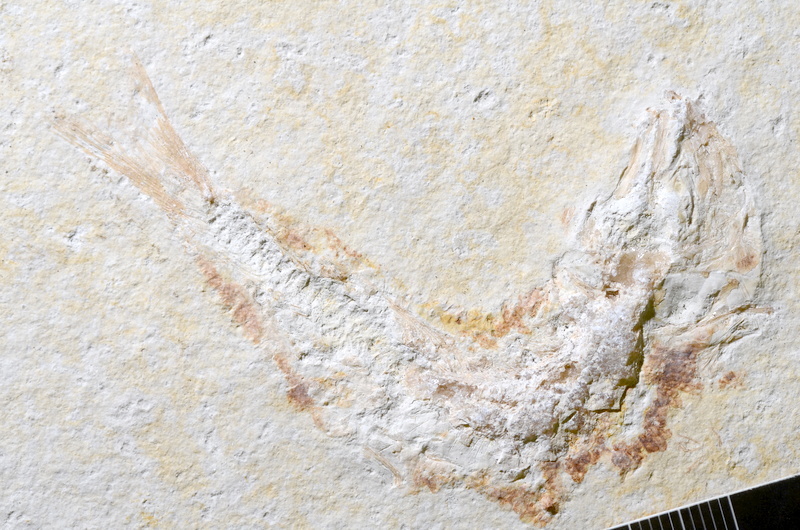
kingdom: Animalia
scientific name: Animalia
